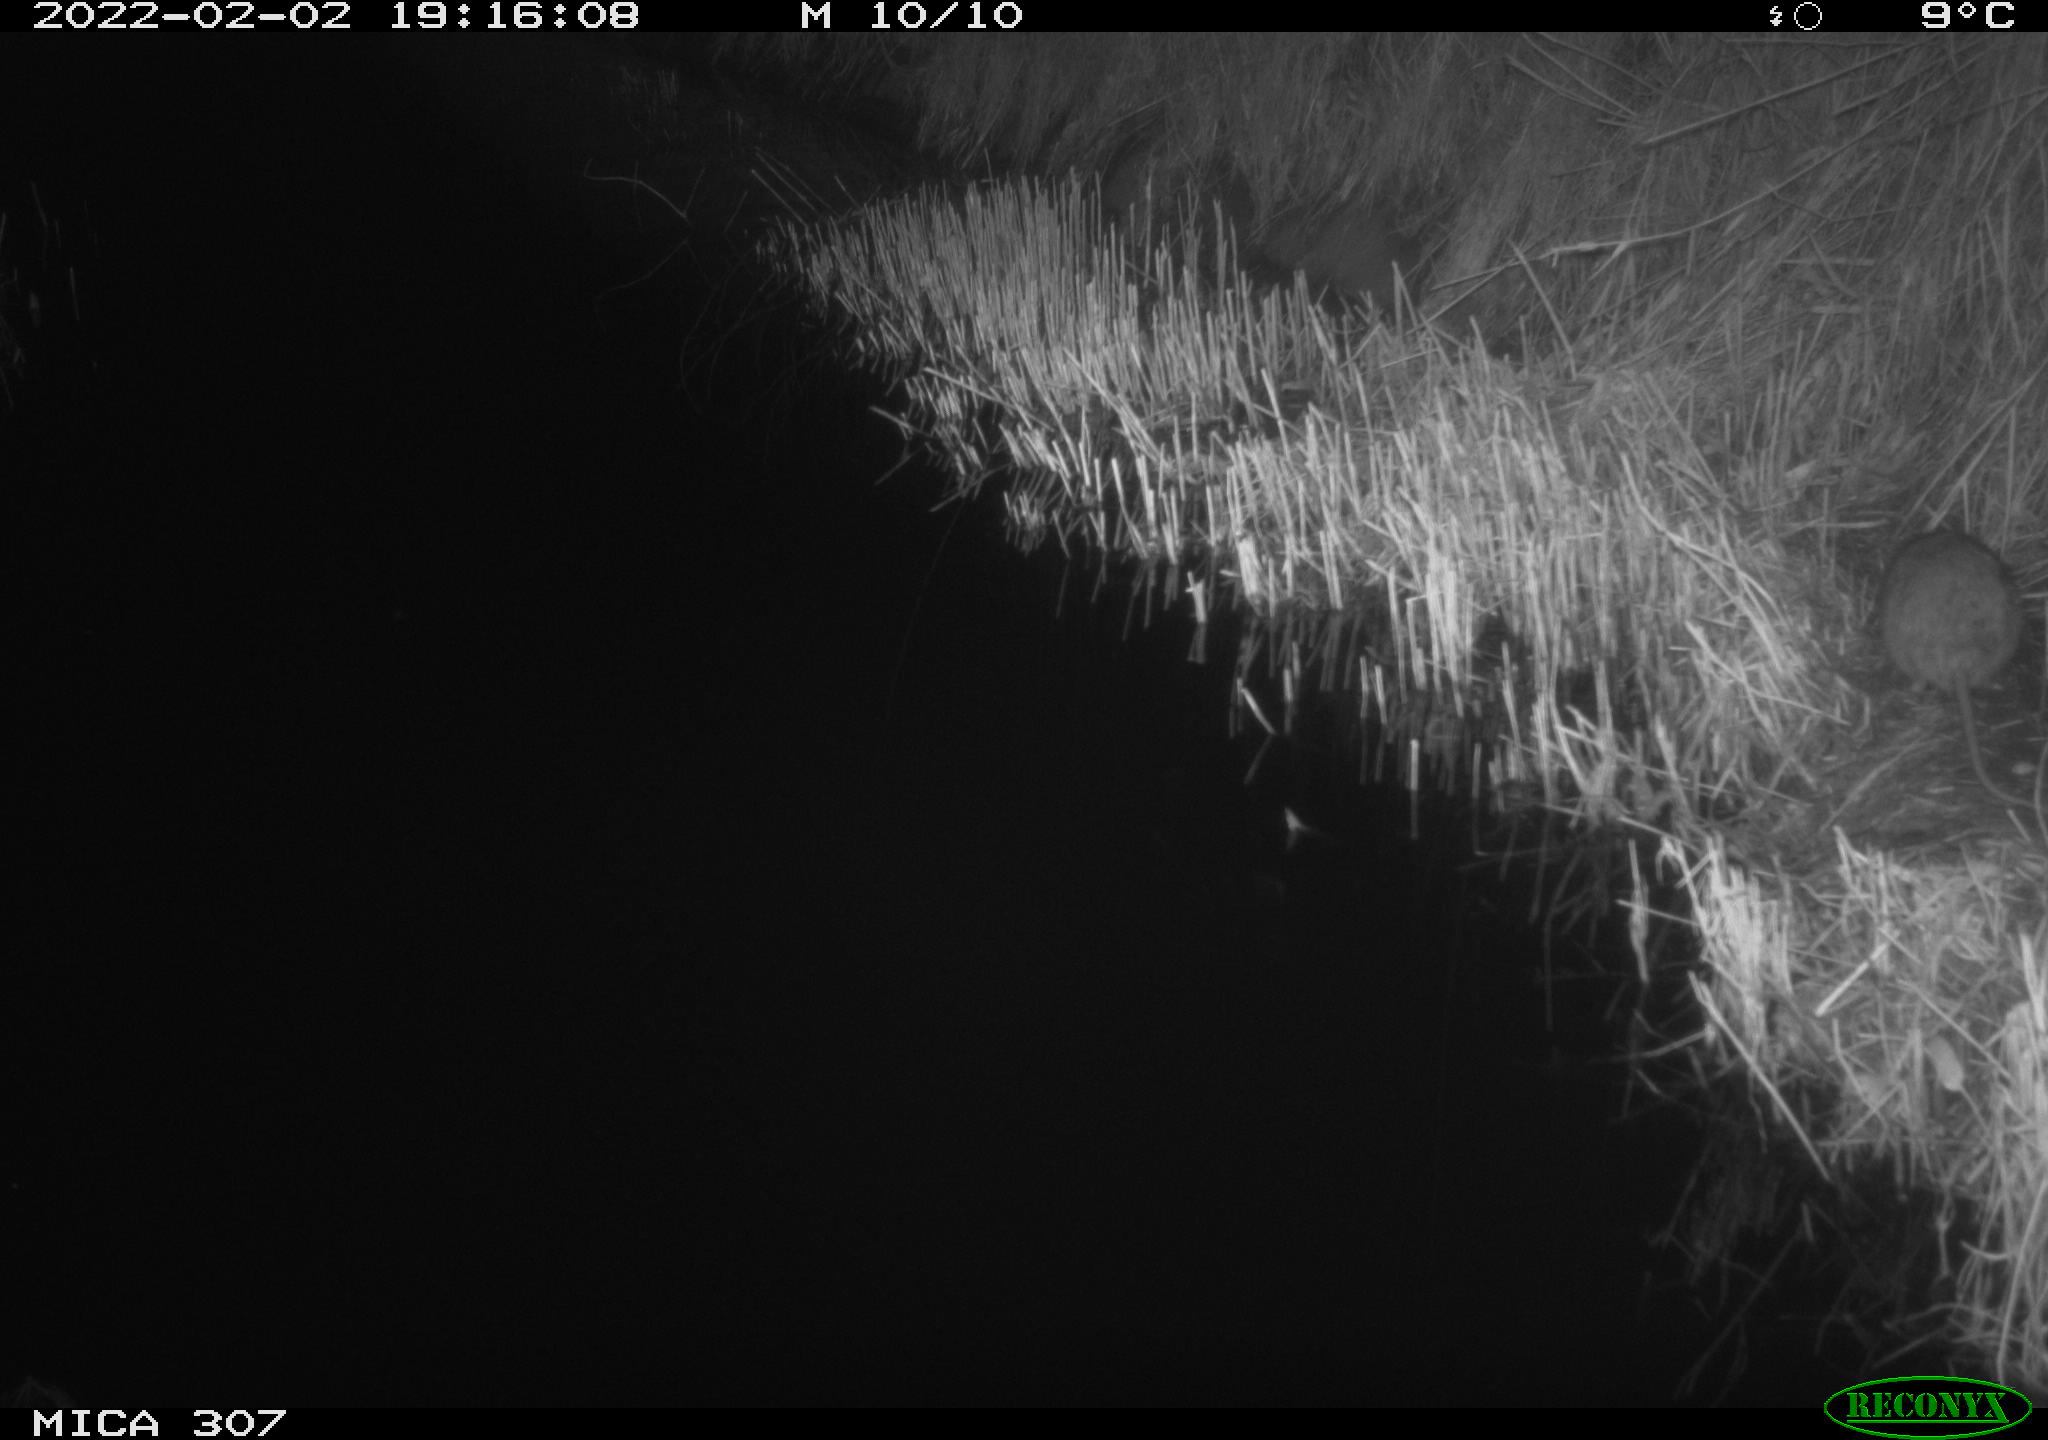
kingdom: Animalia
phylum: Chordata
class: Mammalia
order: Rodentia
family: Muridae
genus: Rattus
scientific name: Rattus norvegicus
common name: Brown rat
